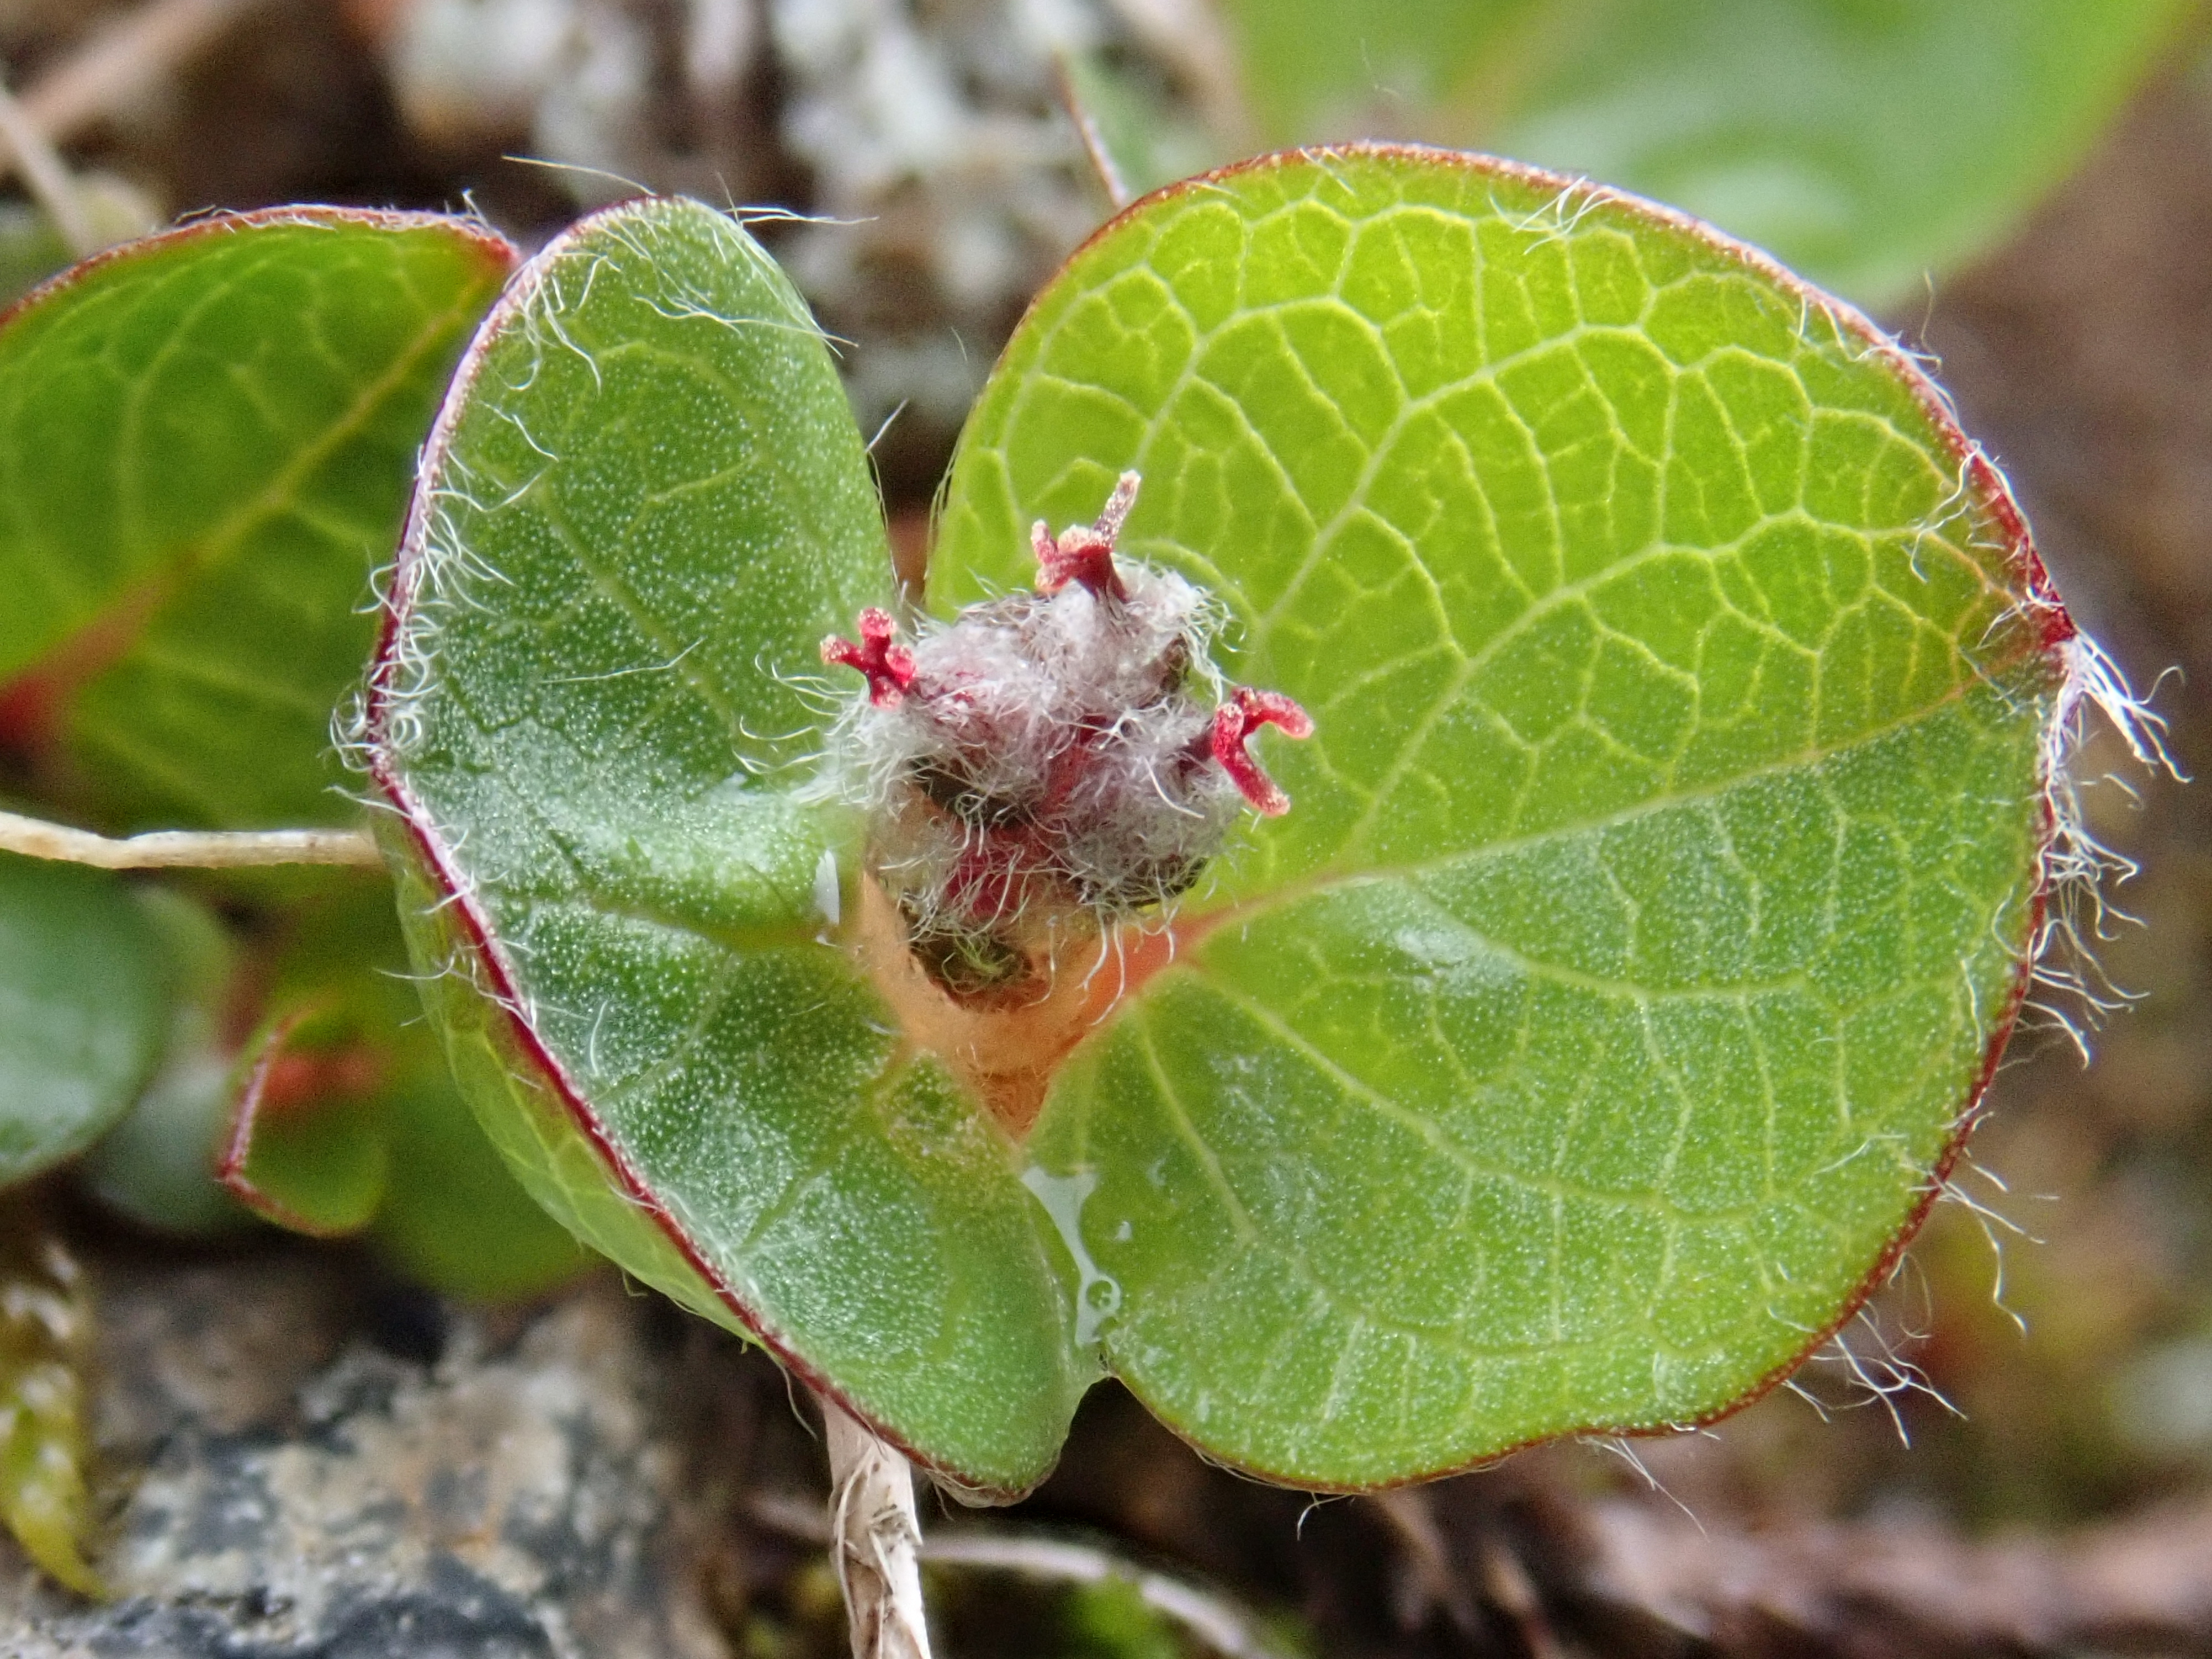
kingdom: Plantae
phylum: Tracheophyta
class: Magnoliopsida
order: Malpighiales
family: Salicaceae
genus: Salix
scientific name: Salix polaris
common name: Polar willow
